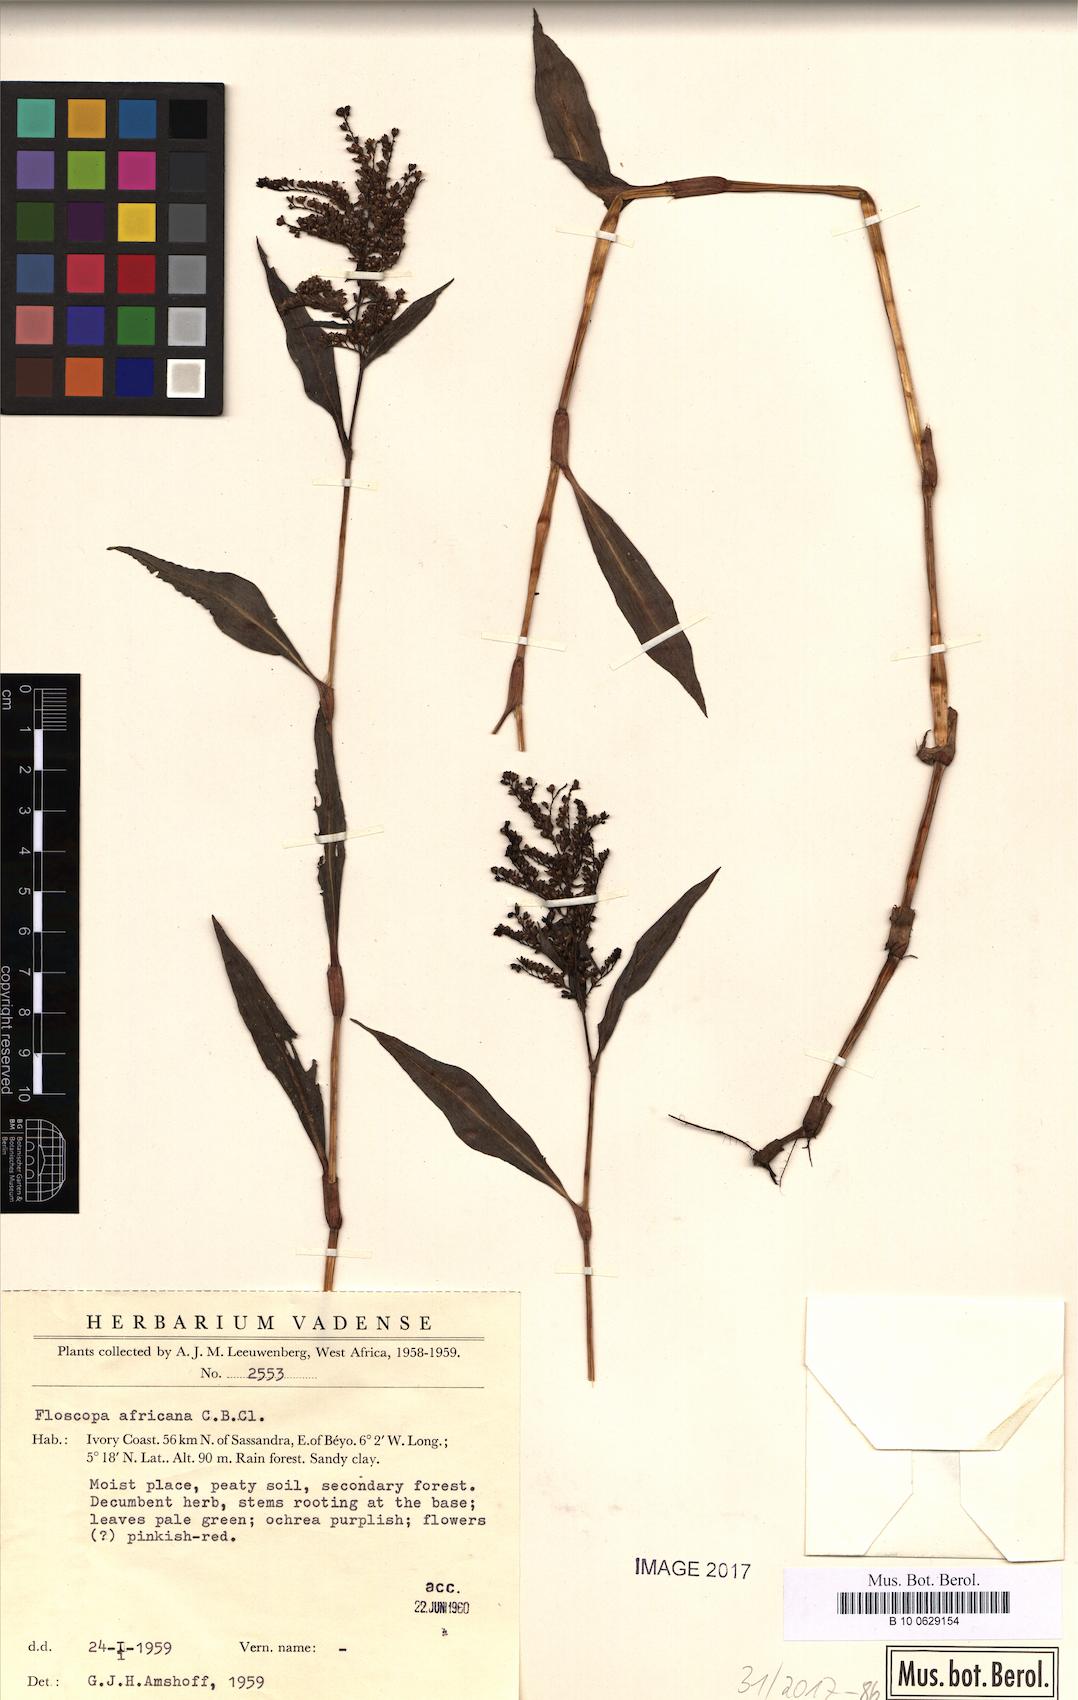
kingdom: Plantae
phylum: Tracheophyta
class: Liliopsida
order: Commelinales
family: Commelinaceae
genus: Floscopa
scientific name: Floscopa africana
